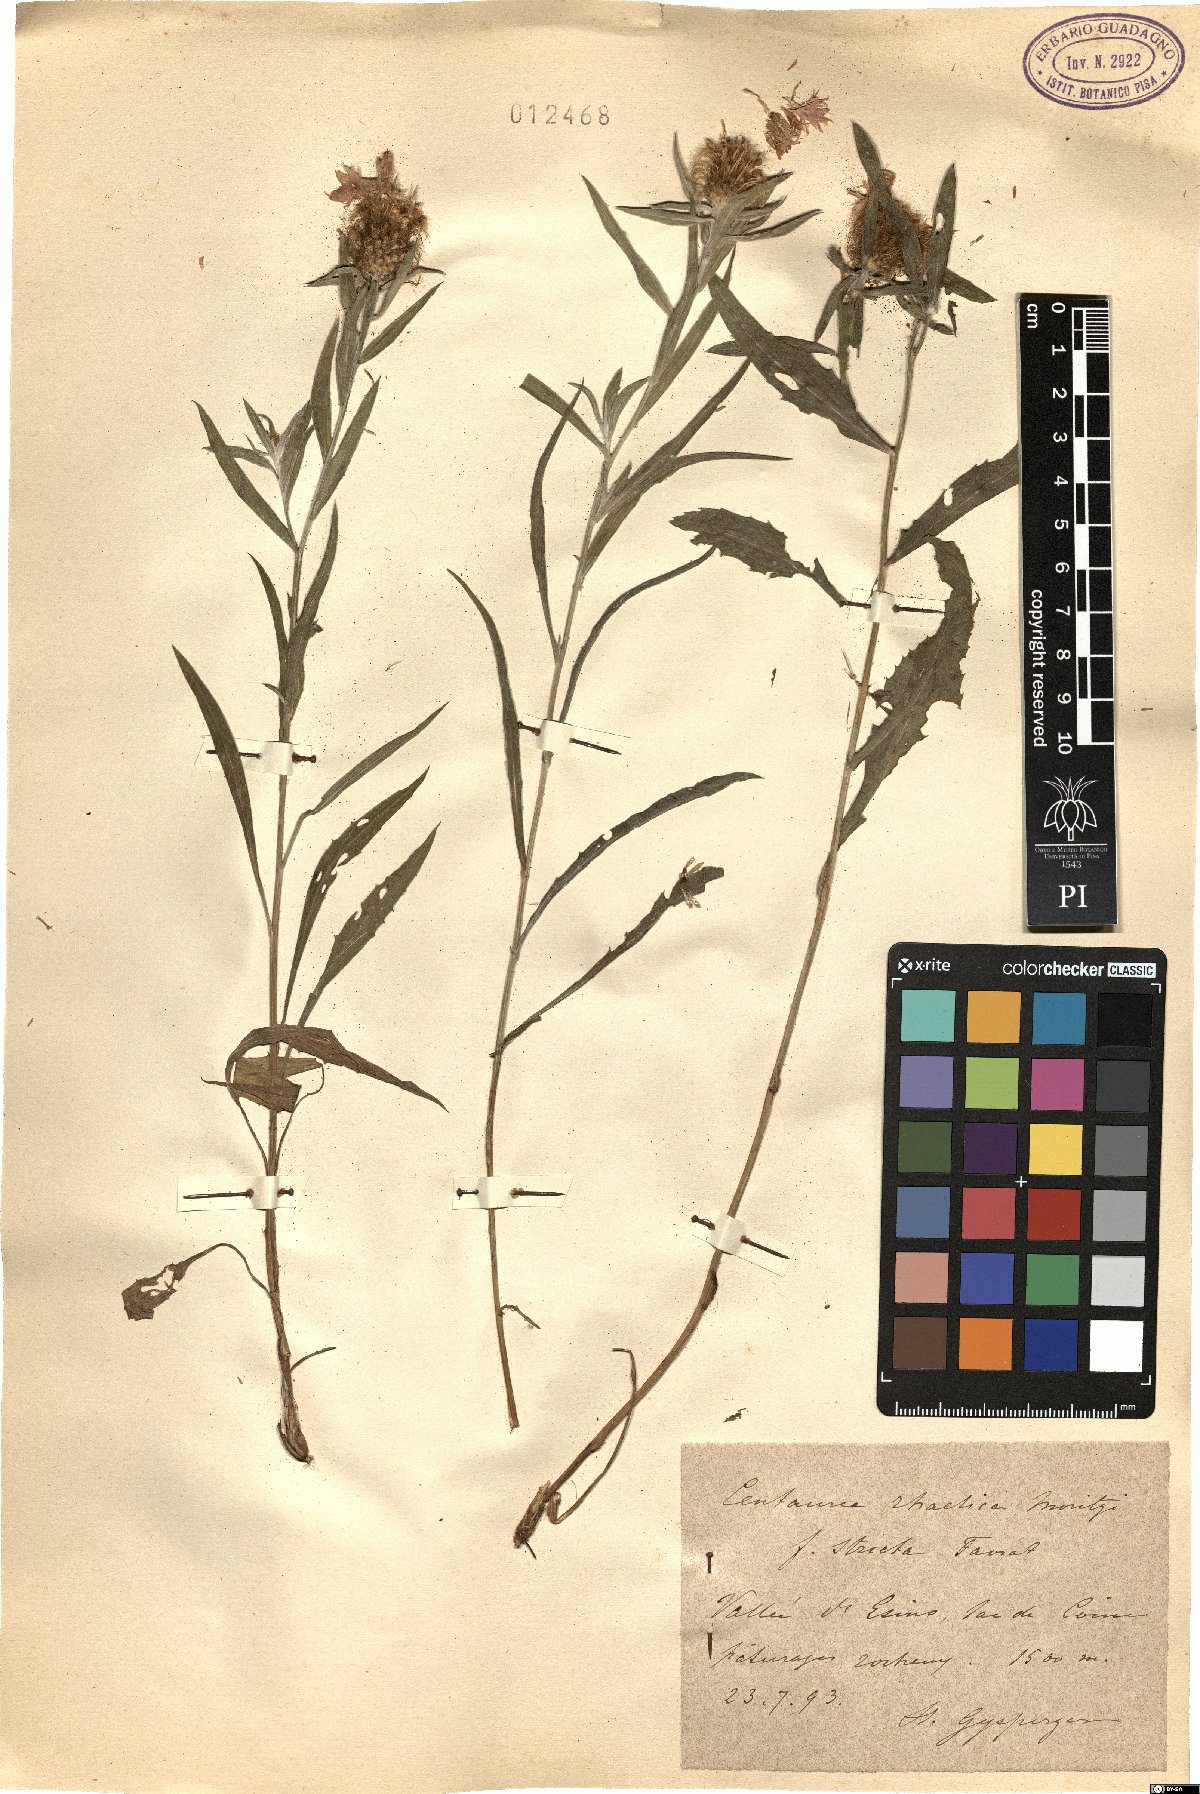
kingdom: Plantae
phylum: Tracheophyta
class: Magnoliopsida
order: Asterales
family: Asteraceae
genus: Centaurea
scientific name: Centaurea rhaetica
